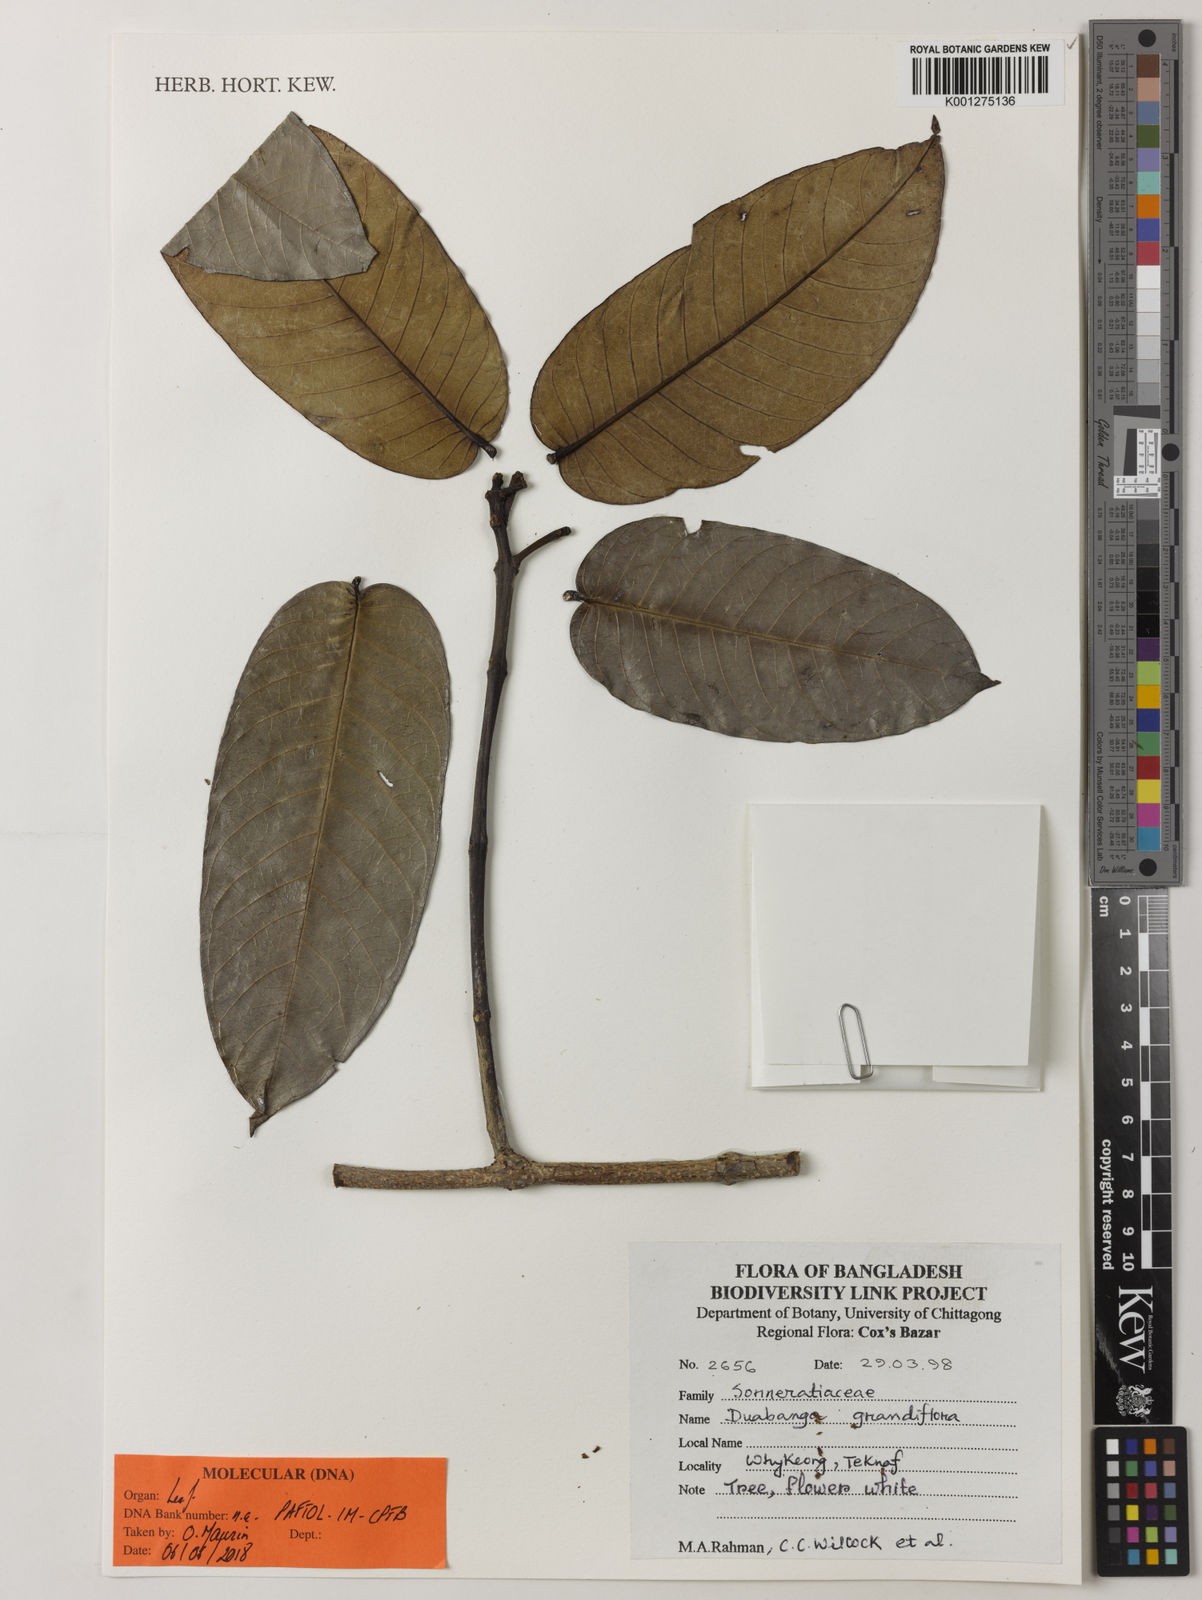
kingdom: Plantae
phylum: Tracheophyta
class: Magnoliopsida
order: Myrtales
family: Lythraceae
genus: Duabanga
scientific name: Duabanga grandiflora
